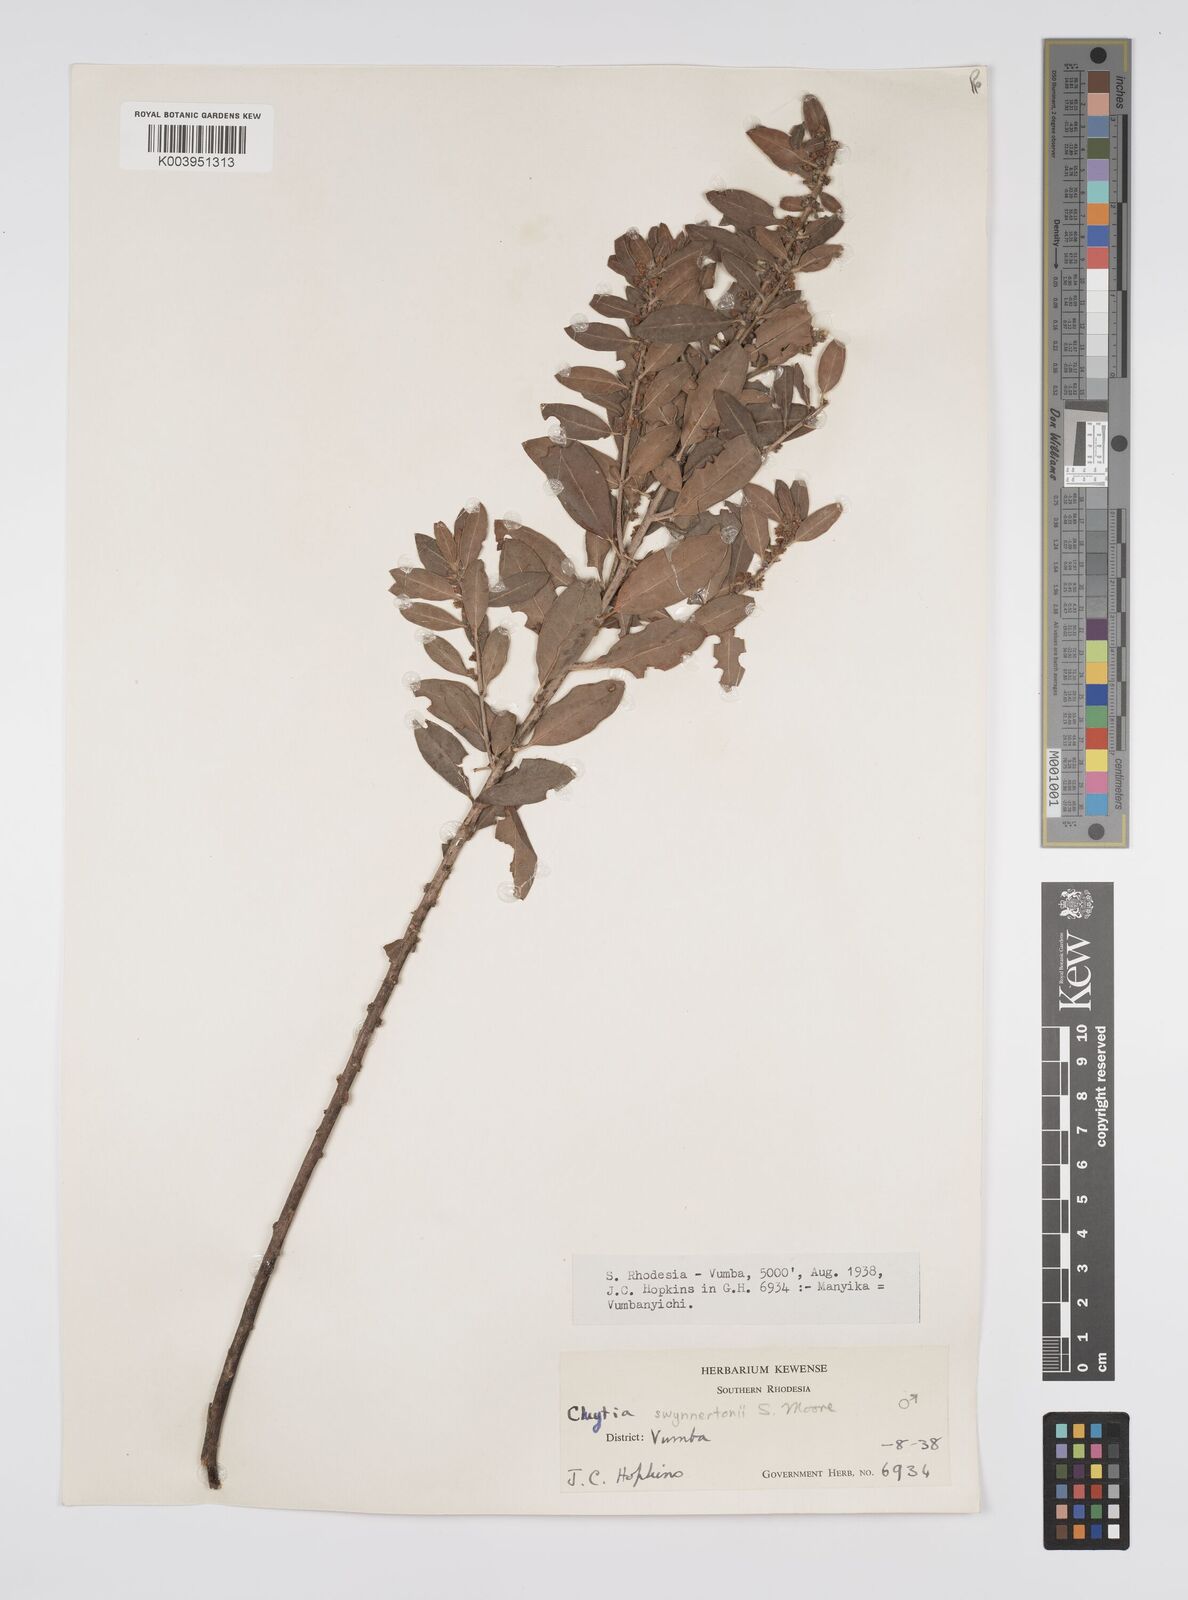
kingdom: Plantae
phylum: Tracheophyta
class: Magnoliopsida
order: Malpighiales
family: Peraceae
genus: Clutia
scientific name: Clutia swynnertonii
